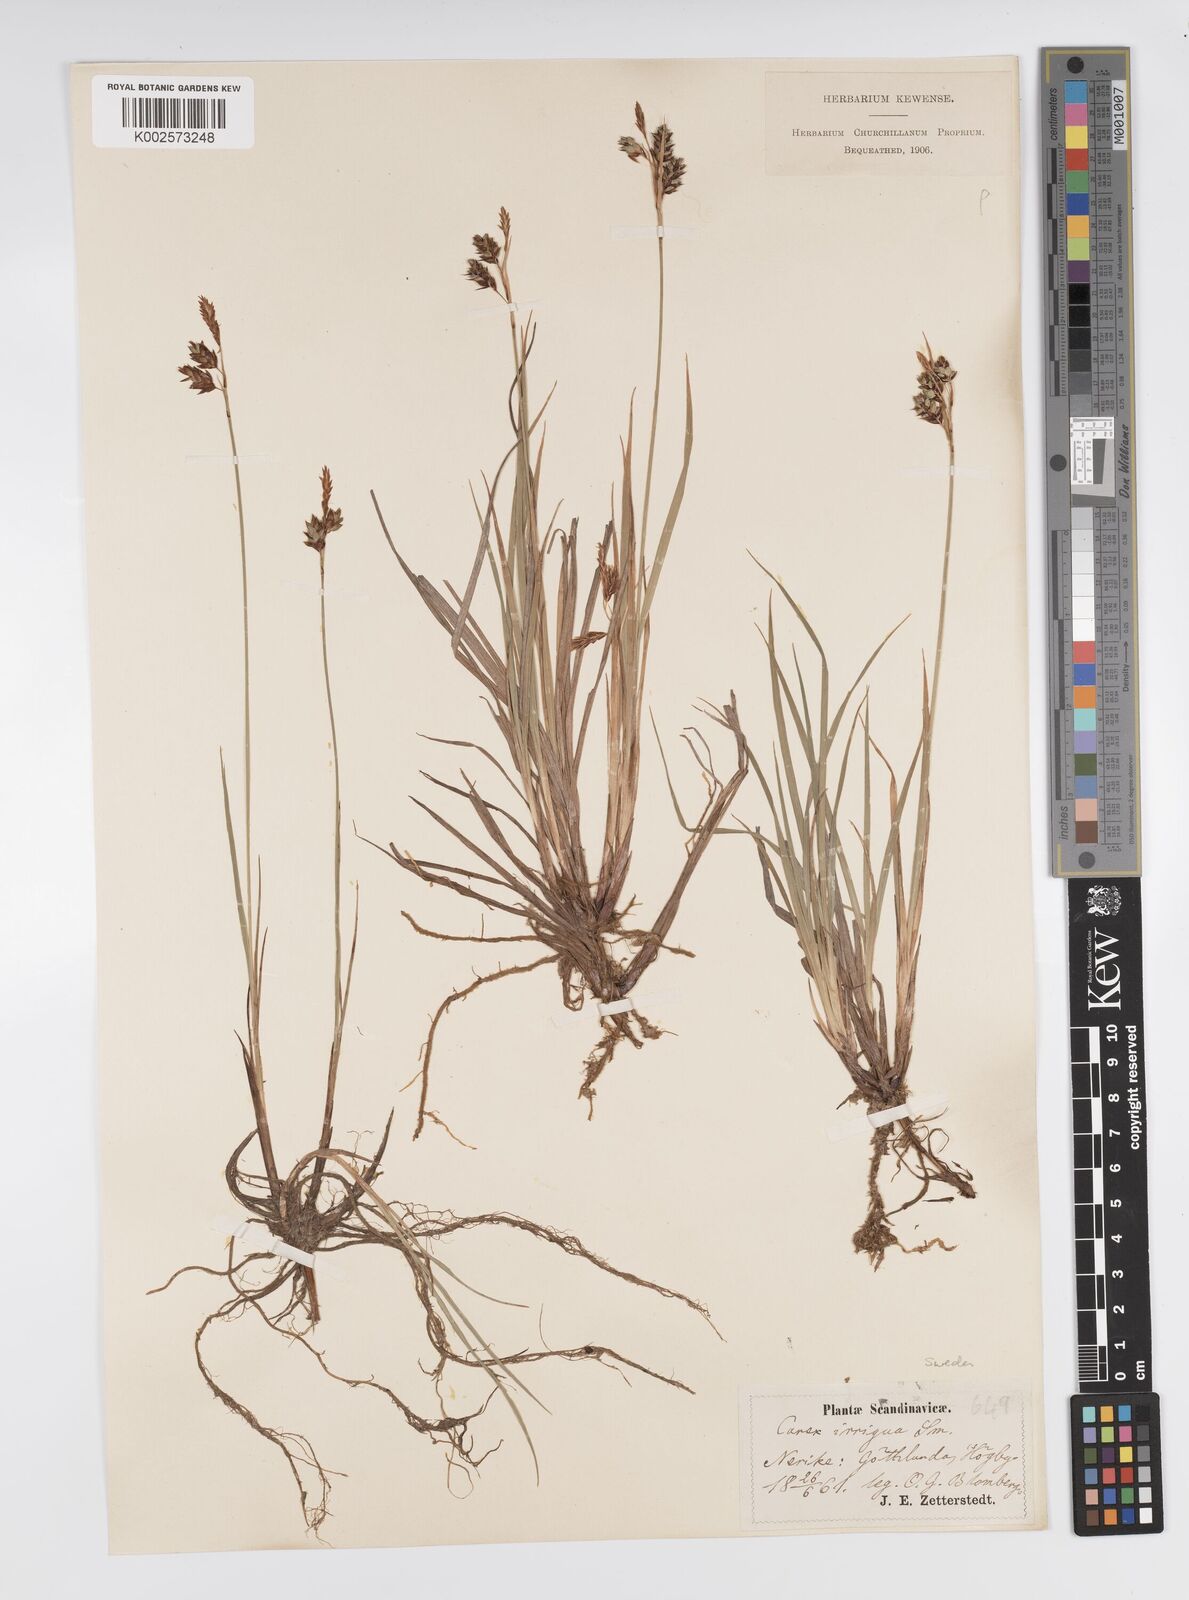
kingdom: Plantae
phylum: Tracheophyta
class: Liliopsida
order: Poales
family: Cyperaceae
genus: Carex
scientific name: Carex magellanica
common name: Bog sedge
